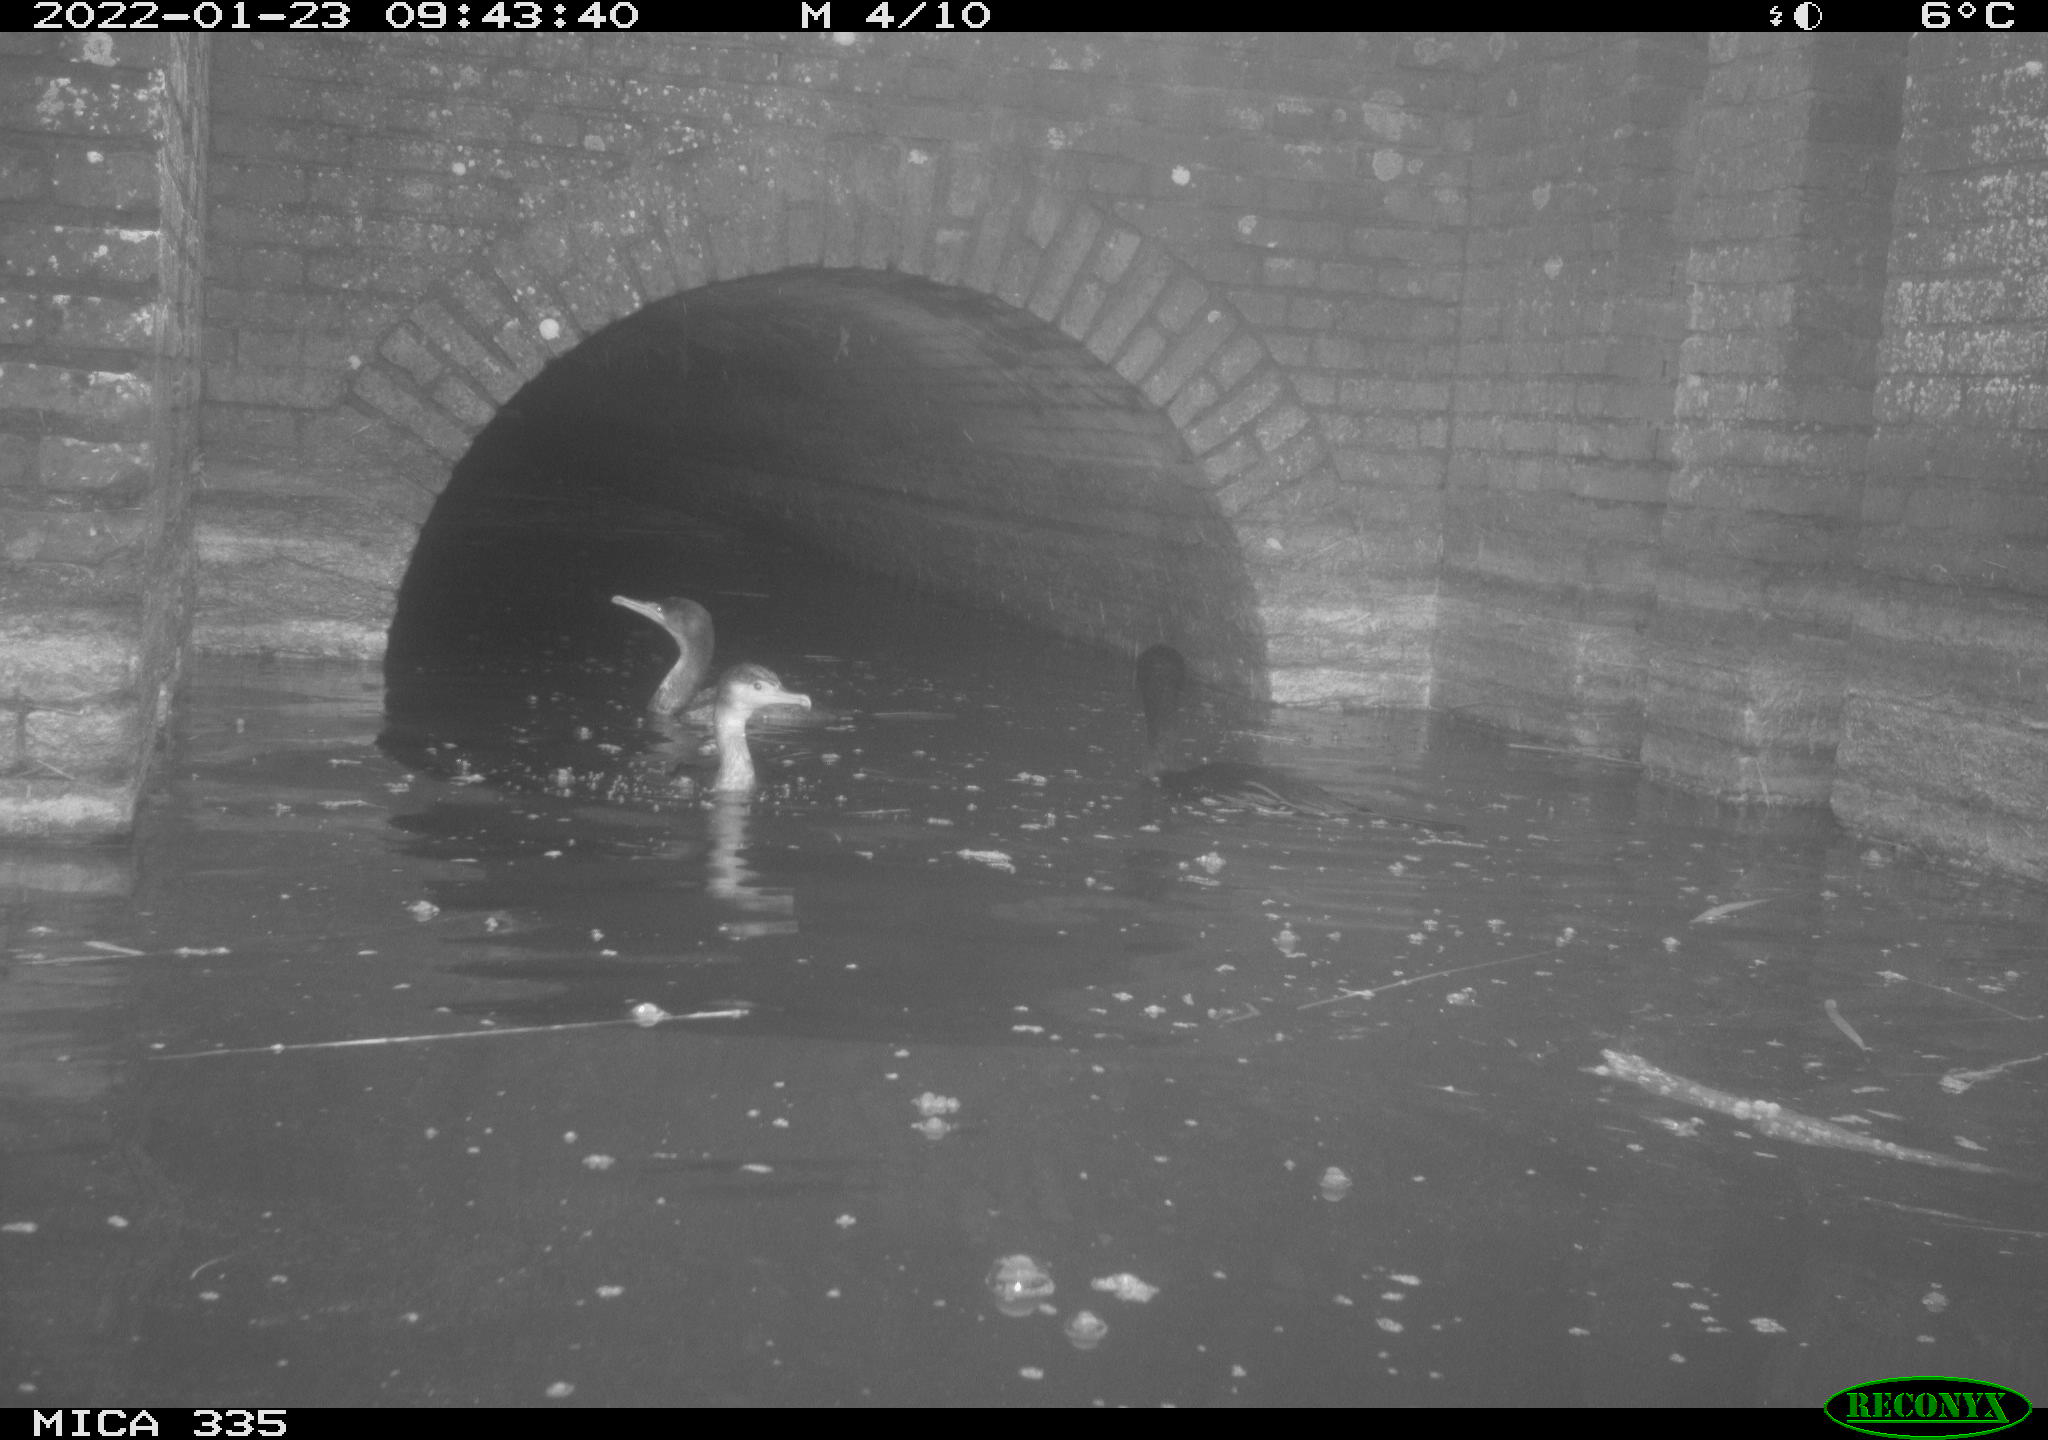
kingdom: Animalia
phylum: Chordata
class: Aves
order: Suliformes
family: Phalacrocoracidae
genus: Phalacrocorax
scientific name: Phalacrocorax carbo
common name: Great cormorant
